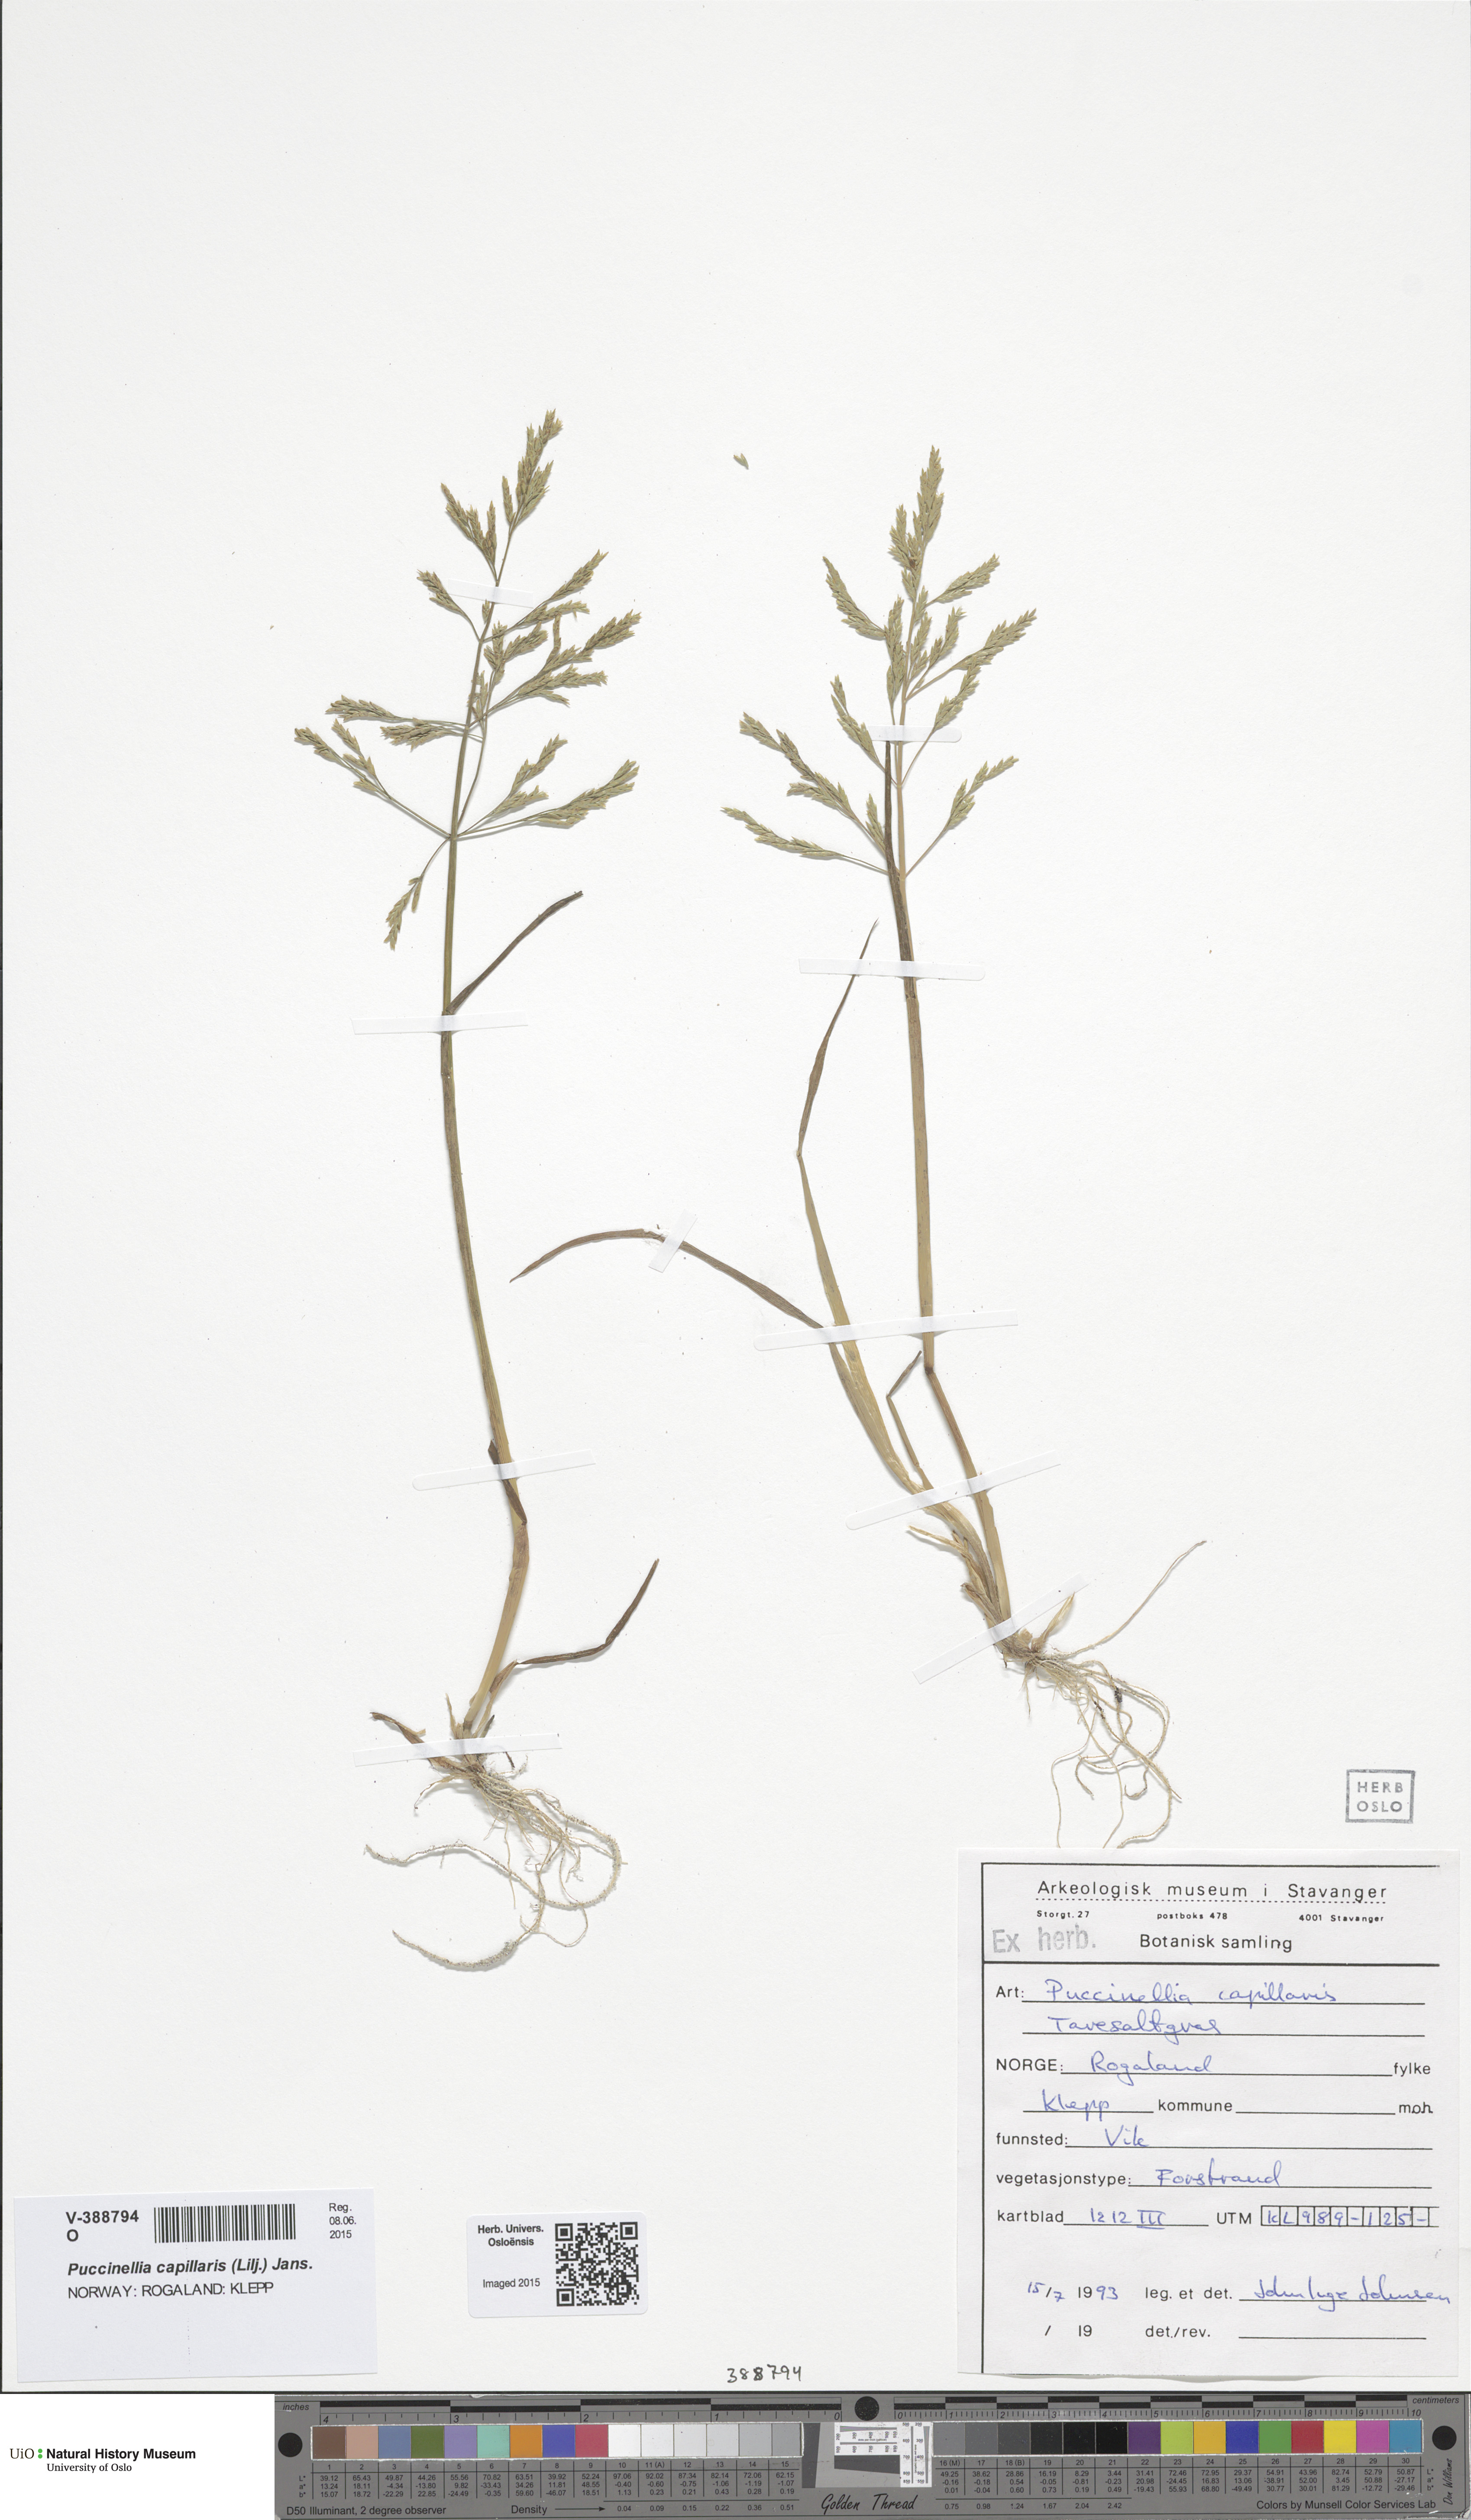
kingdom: Plantae
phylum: Tracheophyta
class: Liliopsida
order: Poales
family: Poaceae
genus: Puccinellia
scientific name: Puccinellia maritima
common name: Common saltmarsh grass
